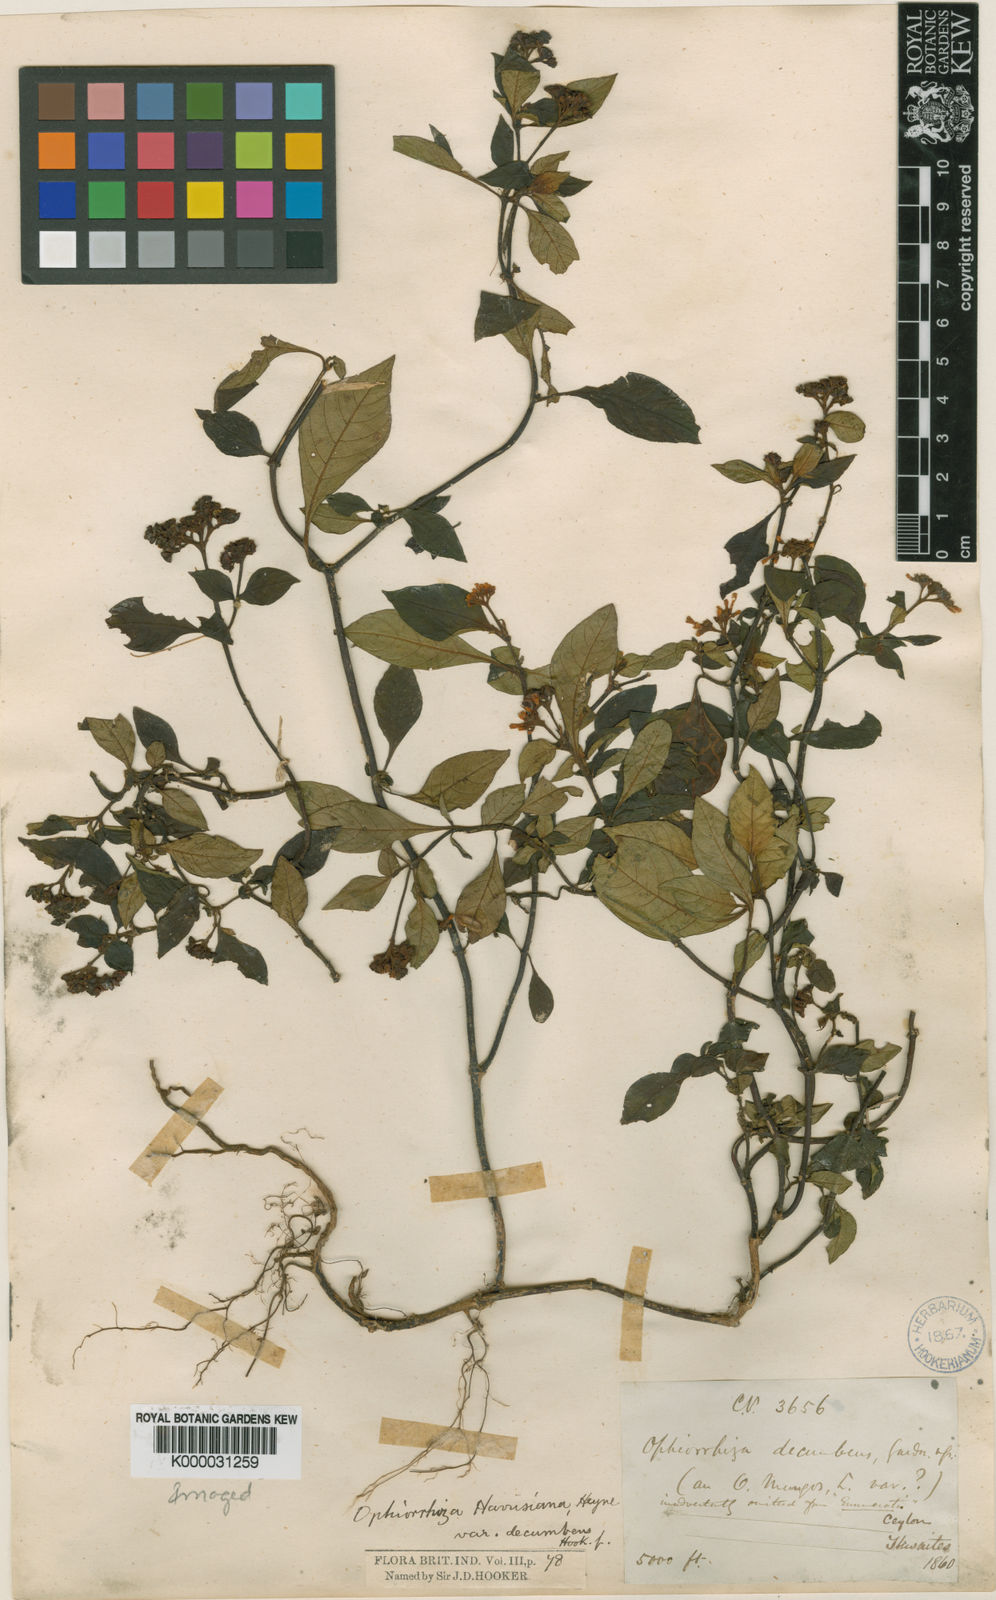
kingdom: Plantae
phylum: Tracheophyta
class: Magnoliopsida
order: Gentianales
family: Rubiaceae
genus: Ophiorrhiza
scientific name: Ophiorrhiza rugosa
